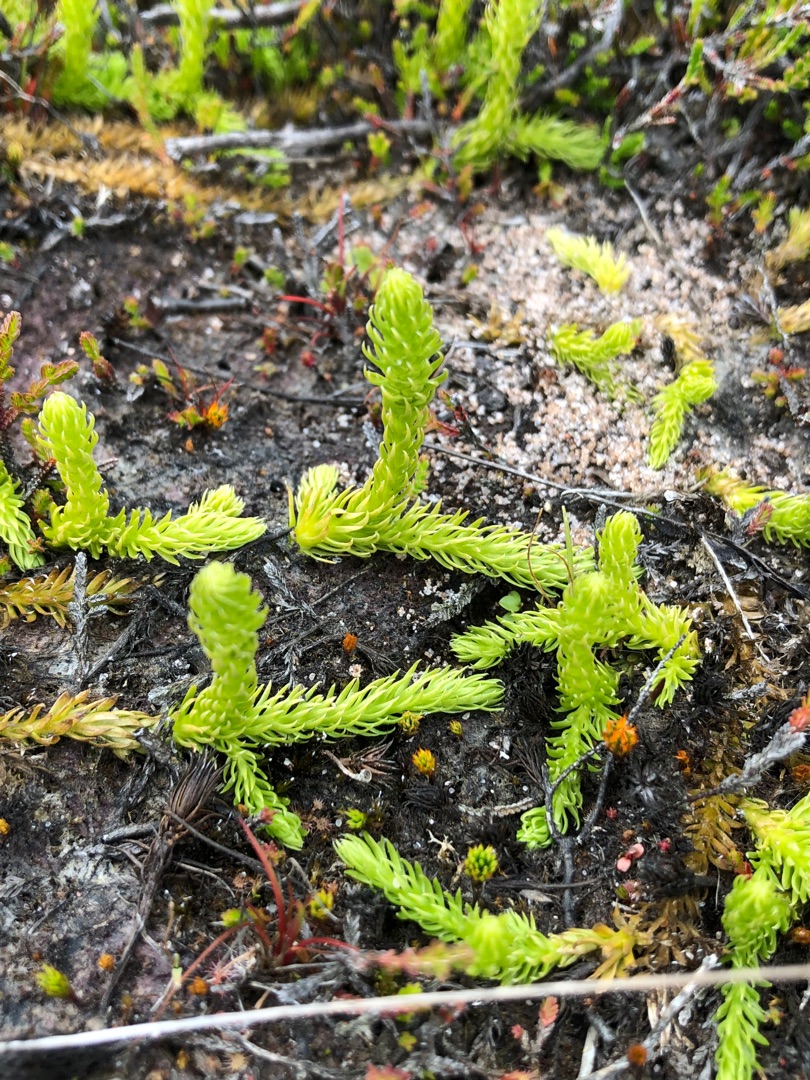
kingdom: Plantae
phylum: Tracheophyta
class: Lycopodiopsida
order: Lycopodiales
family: Lycopodiaceae
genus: Lycopodiella
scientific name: Lycopodiella inundata
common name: Liden ulvefod
